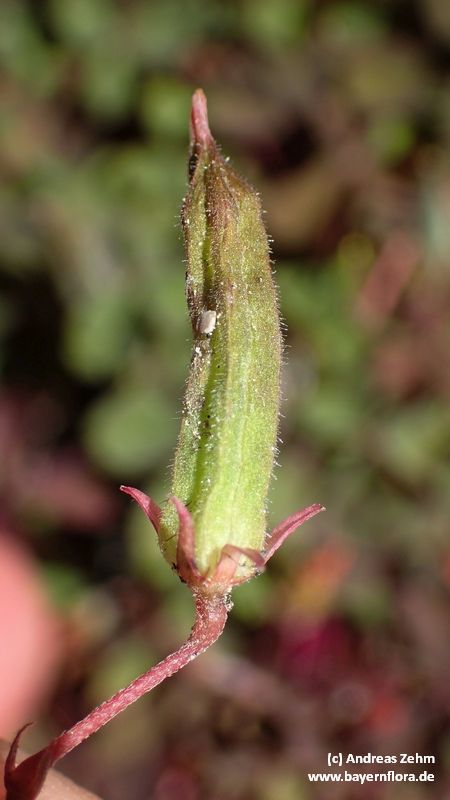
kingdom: Plantae
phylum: Tracheophyta
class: Magnoliopsida
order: Oxalidales
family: Oxalidaceae
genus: Oxalis
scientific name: Oxalis corniculata
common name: Procumbent yellow-sorrel
